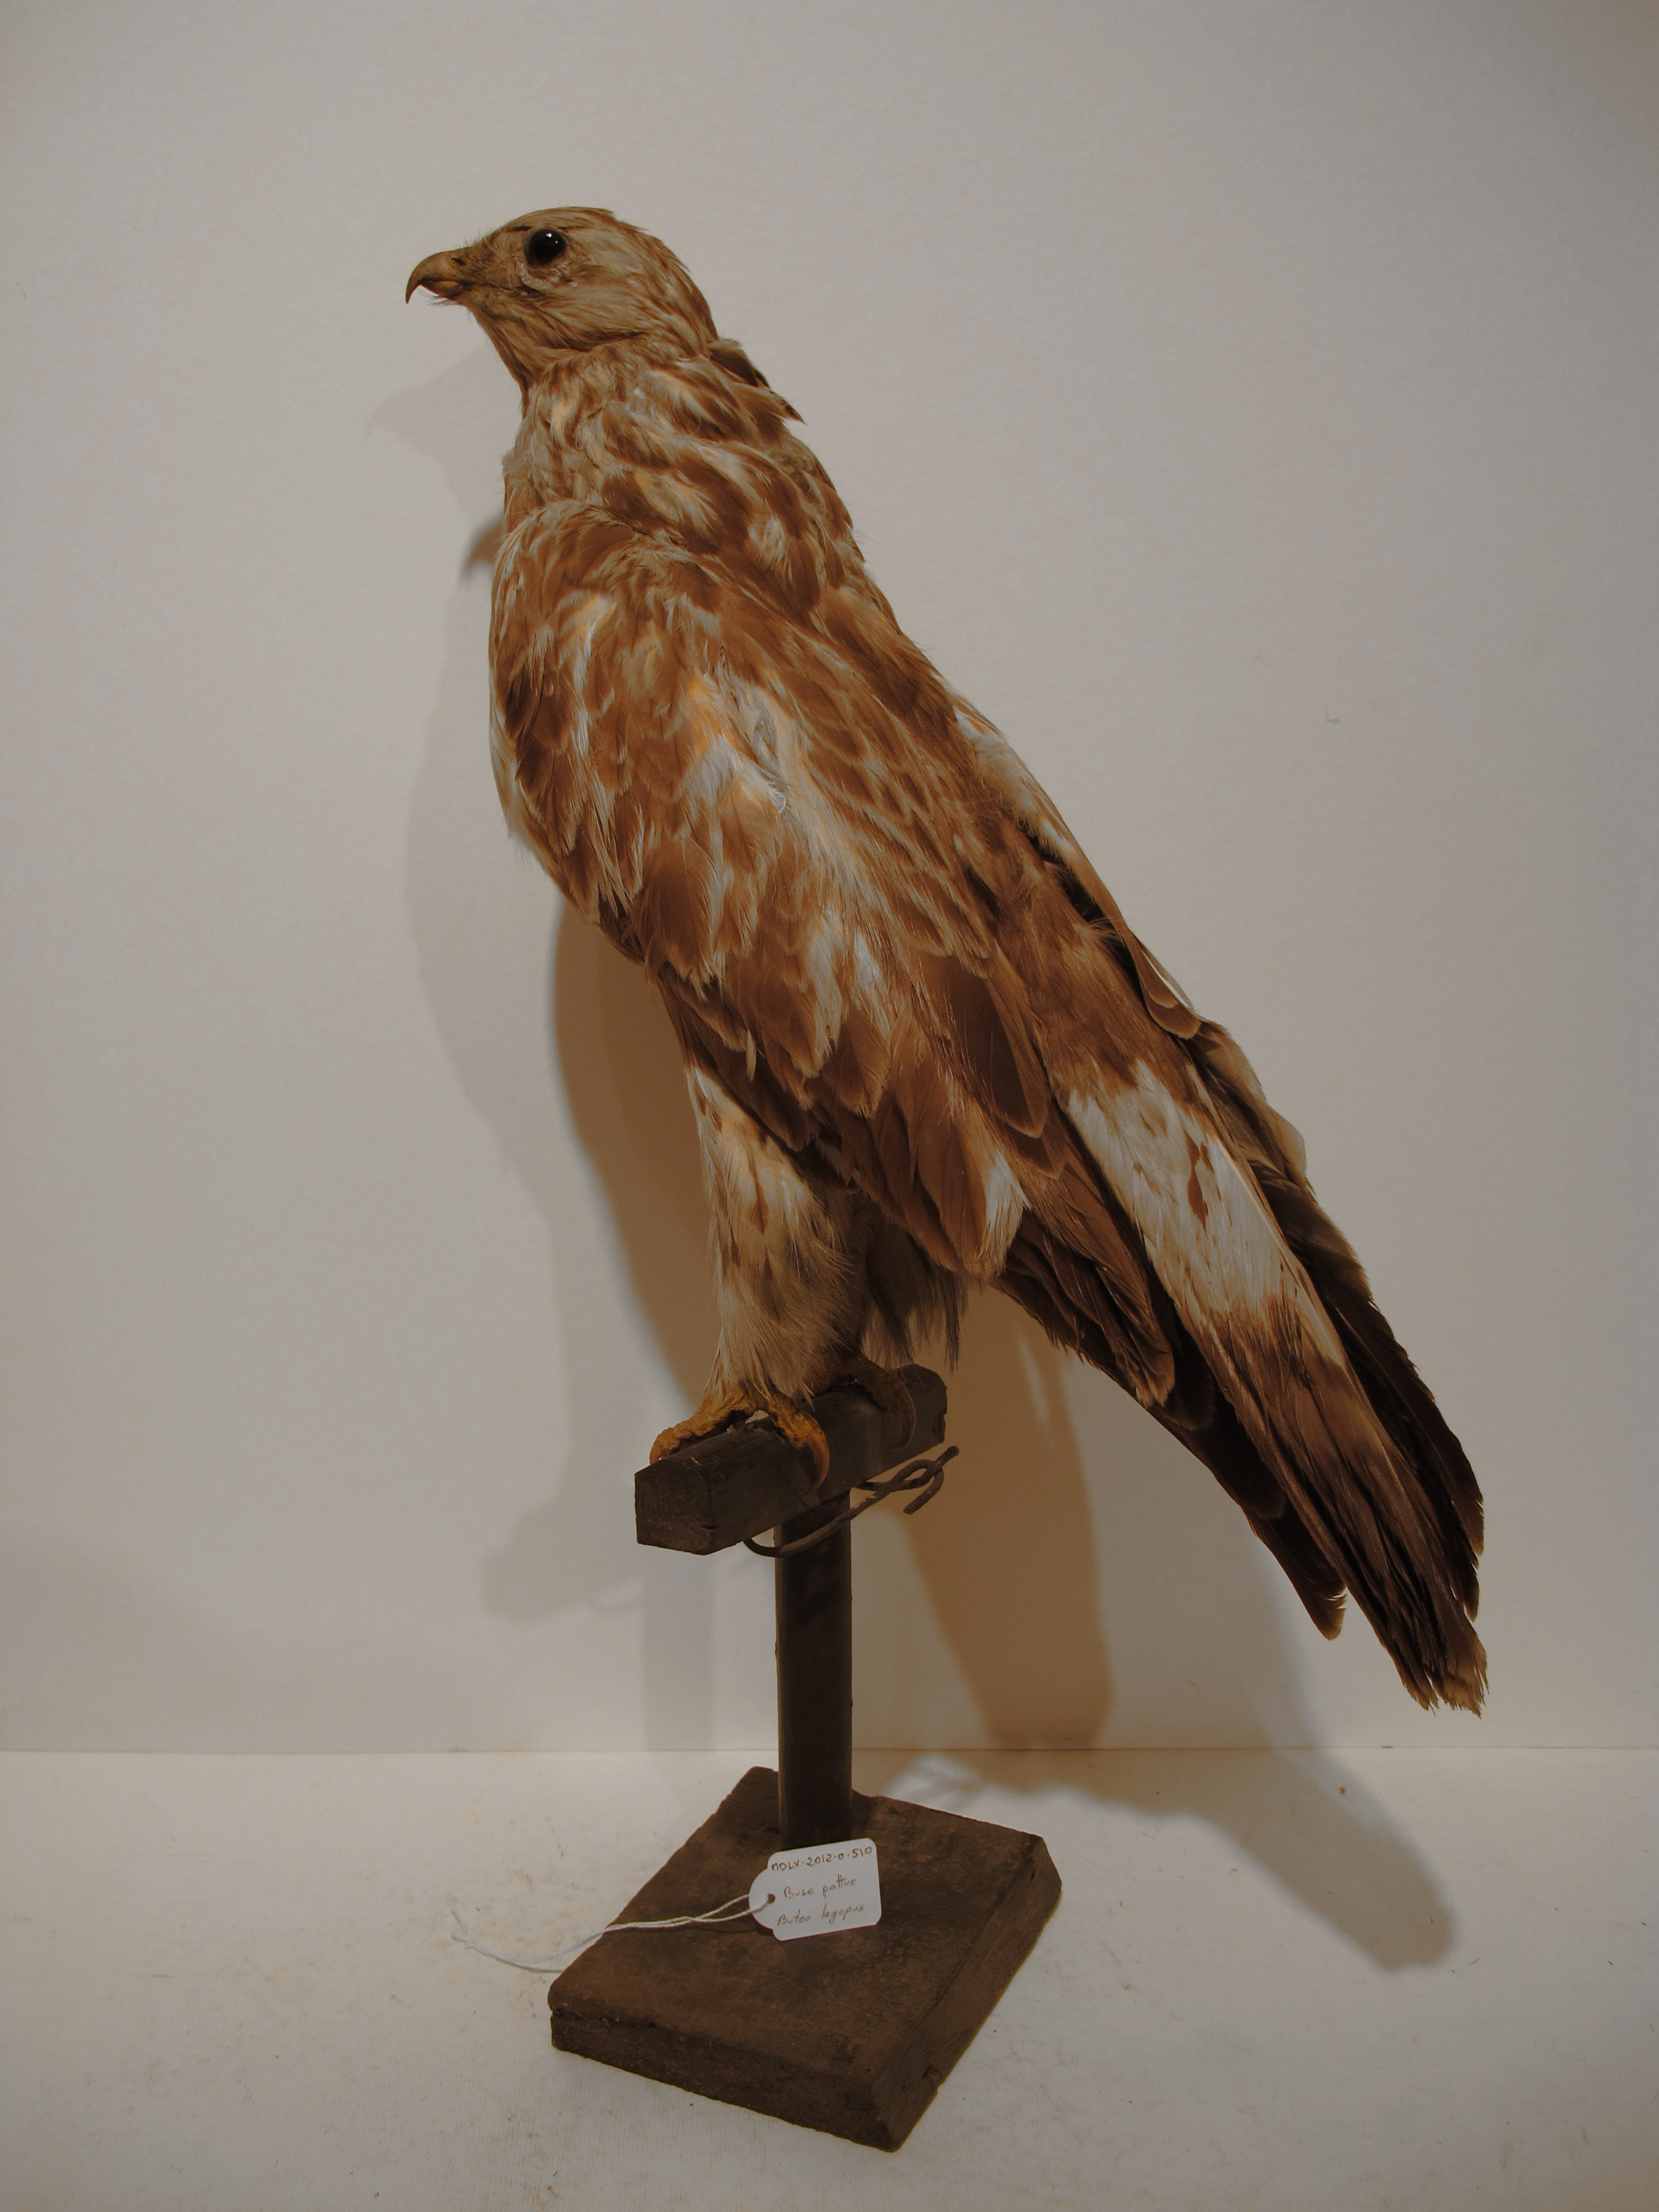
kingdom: Animalia
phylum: Chordata
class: Aves
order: Accipitriformes
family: Accipitridae
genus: Buteo
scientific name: Buteo lagopus
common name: Rough-legged Buzzard
